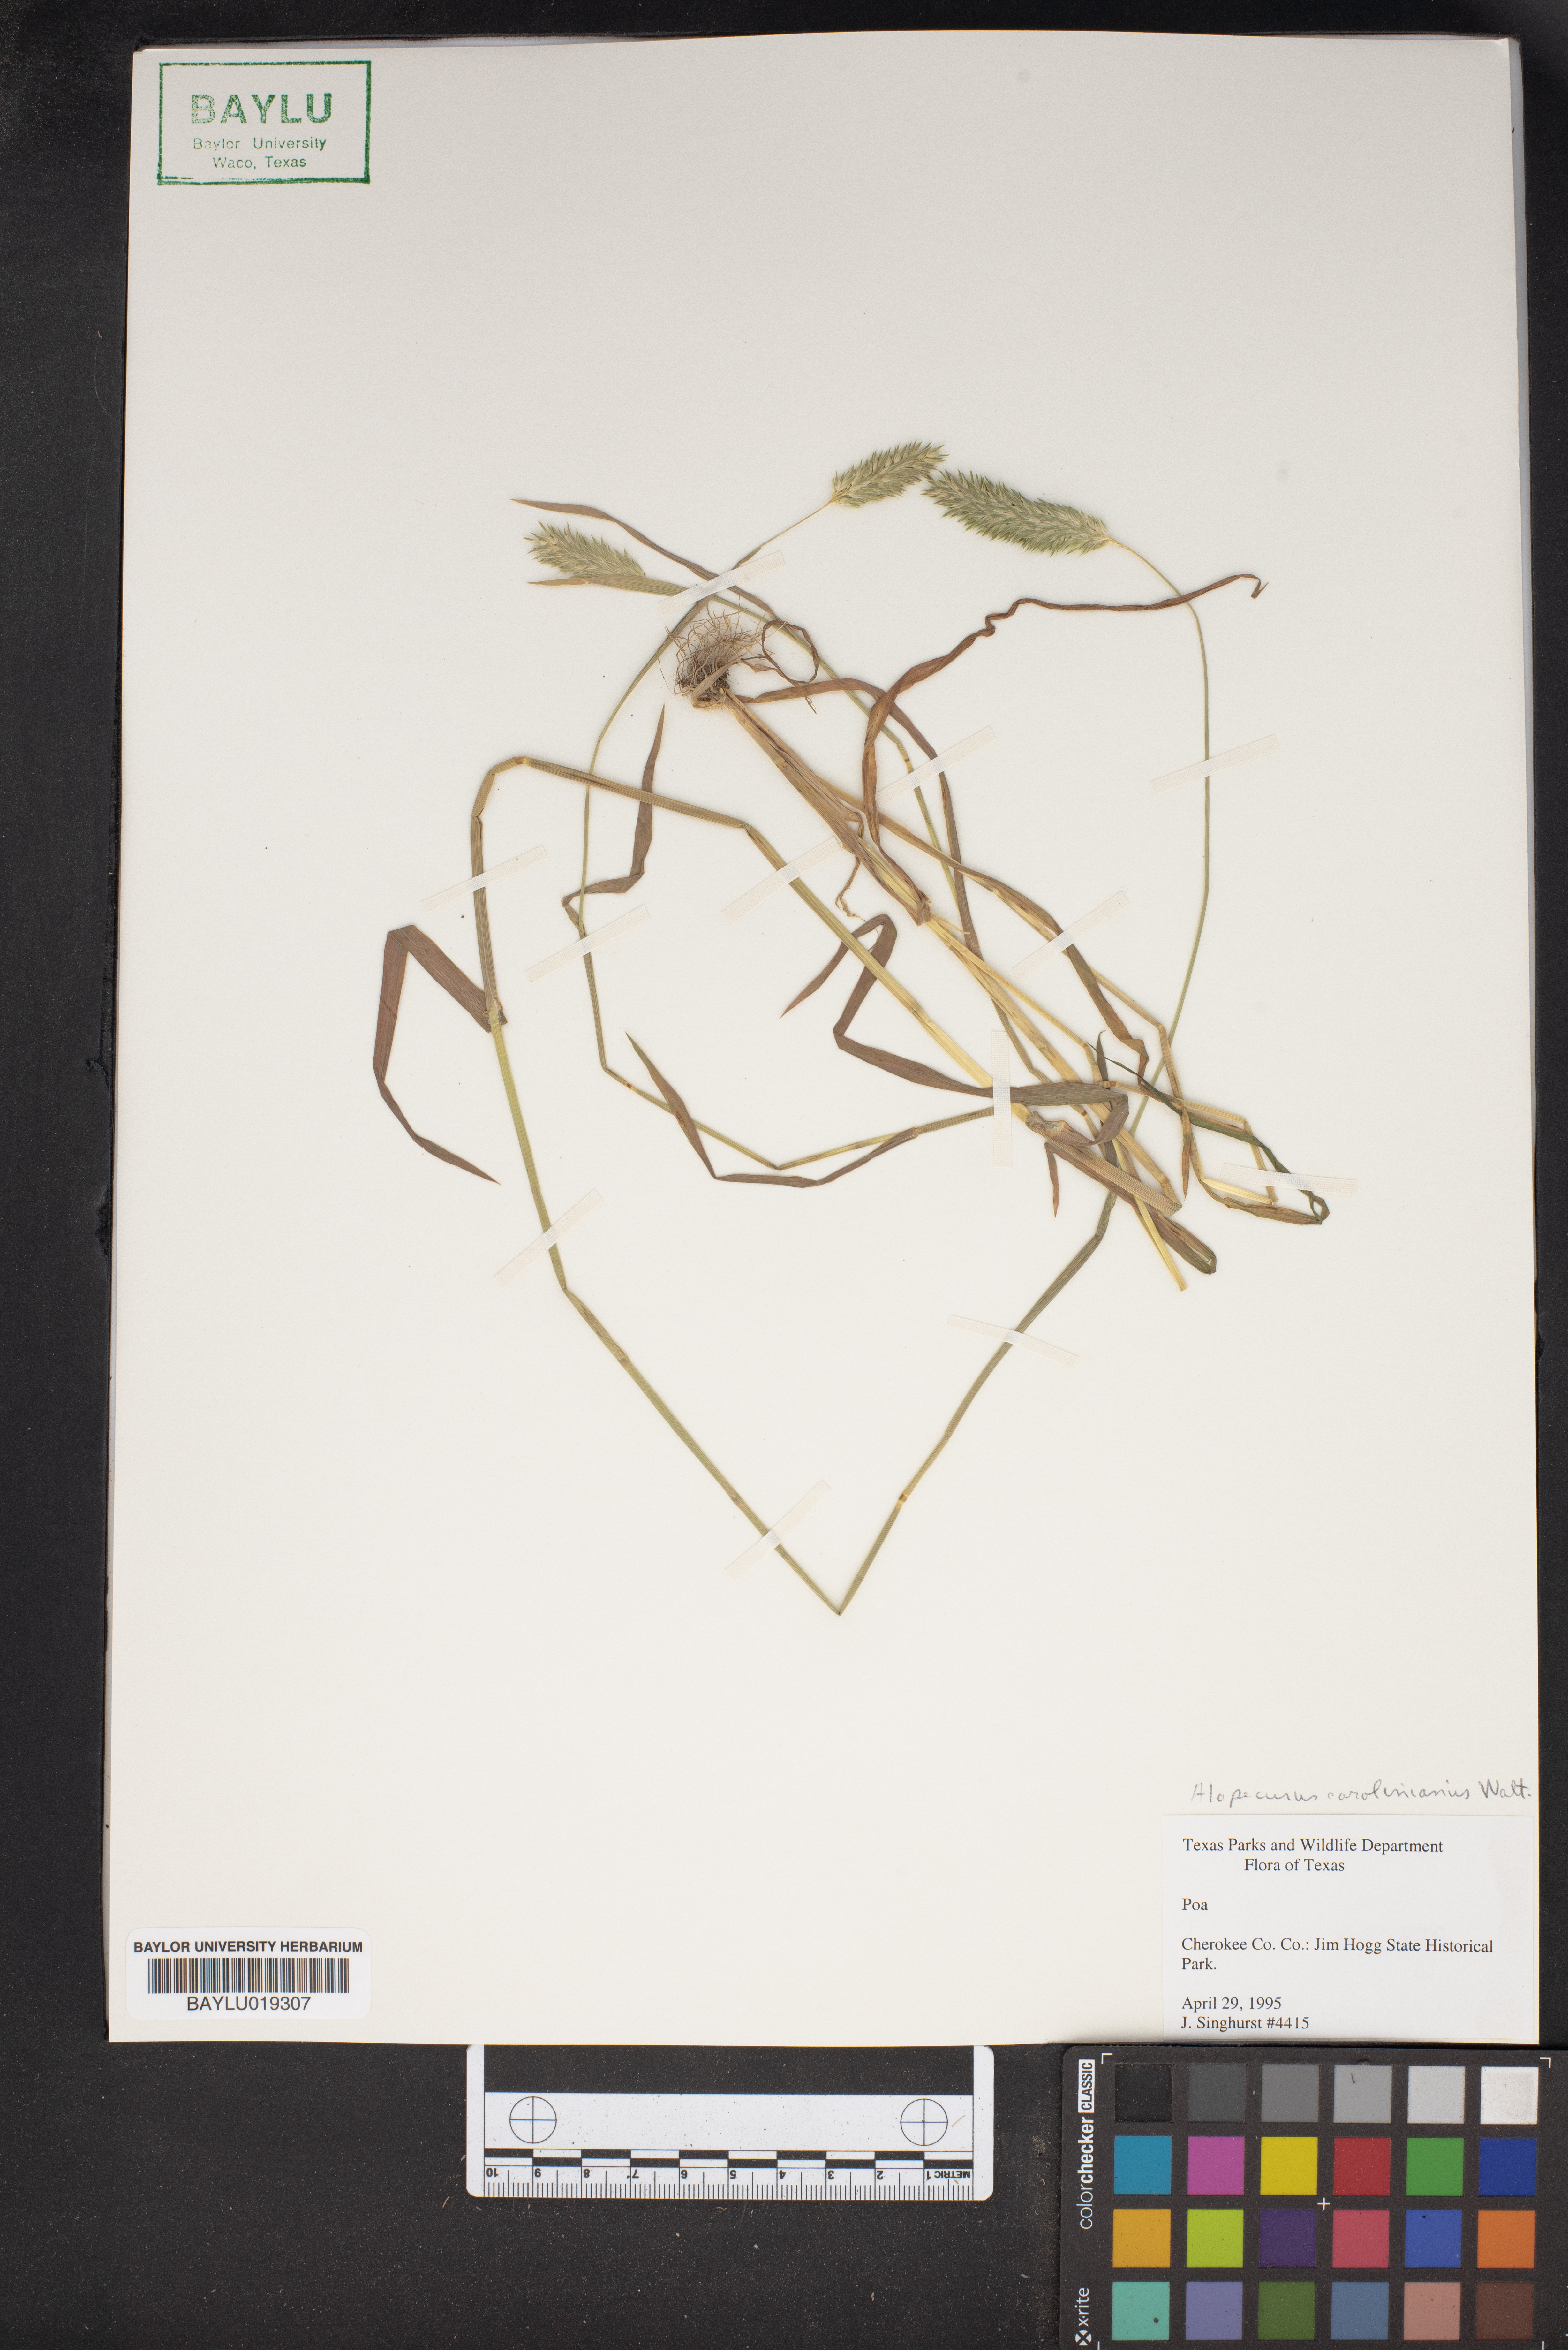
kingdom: Plantae
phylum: Tracheophyta
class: Liliopsida
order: Poales
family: Poaceae
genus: Alopecurus
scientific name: Alopecurus carolinianus
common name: Tufted foxtail
